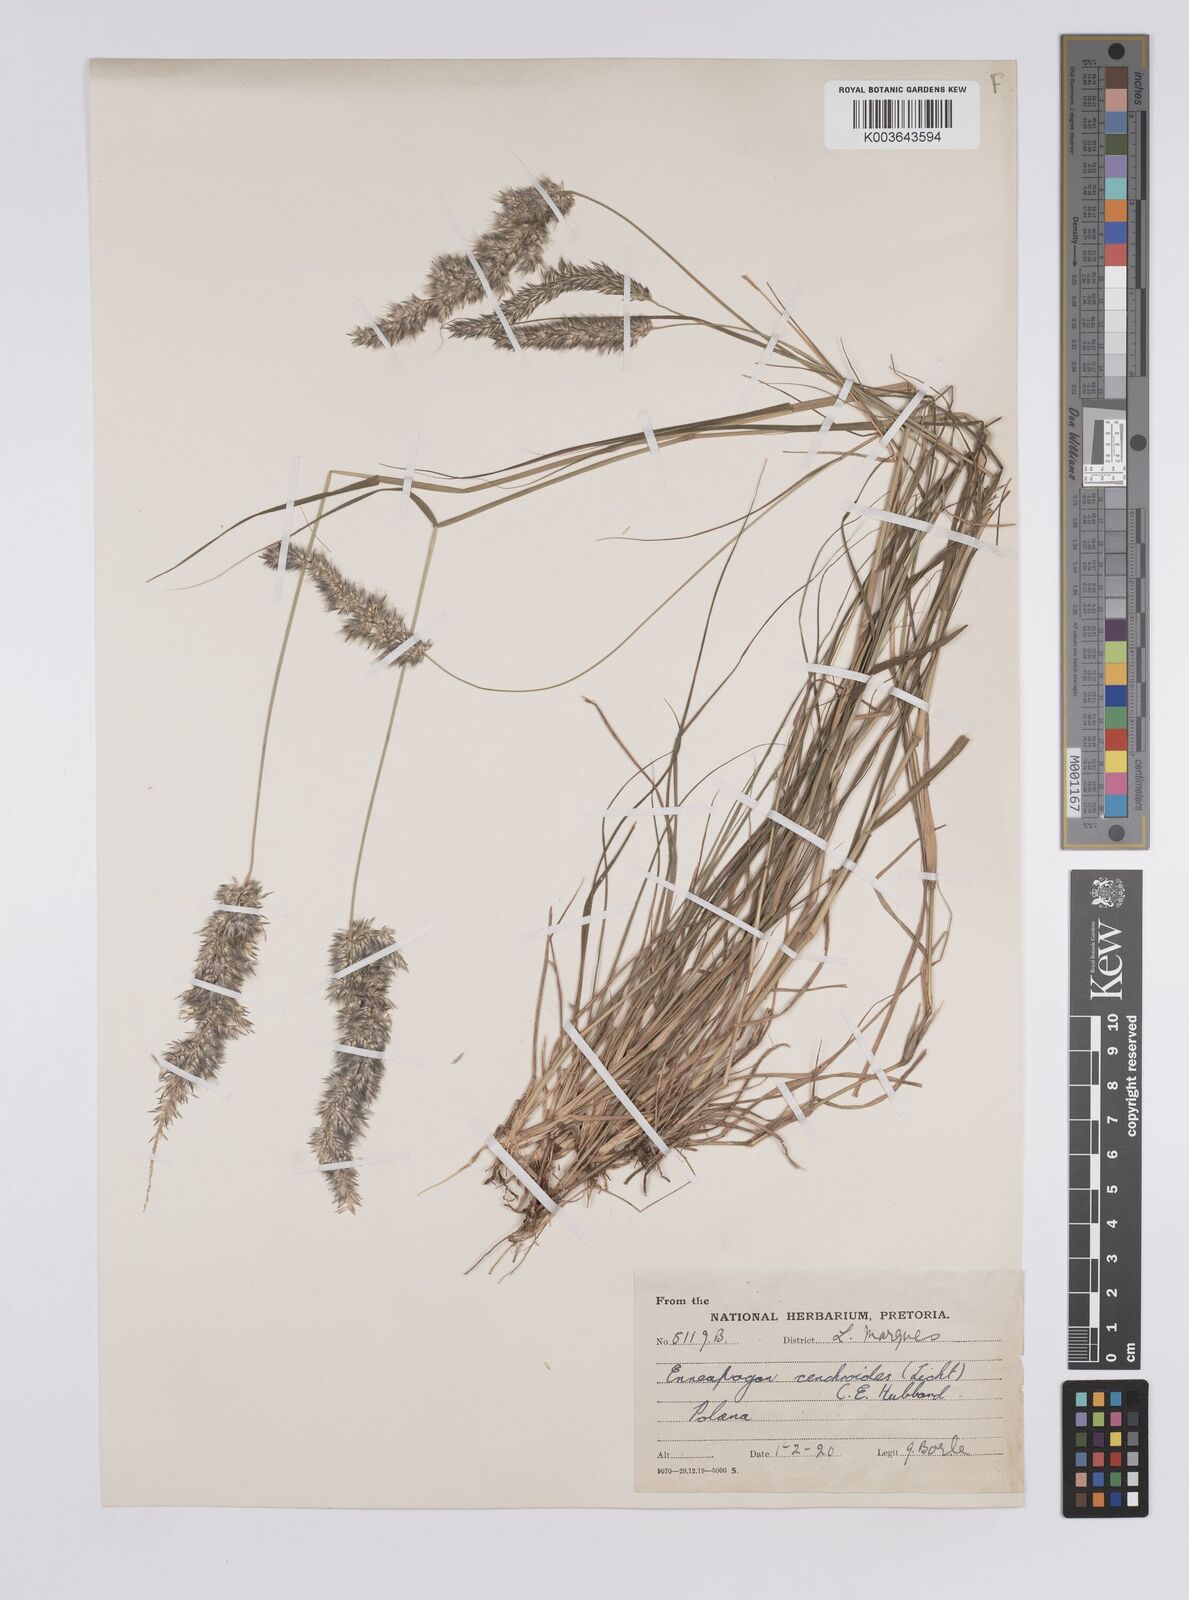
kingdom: Plantae
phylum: Tracheophyta
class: Liliopsida
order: Poales
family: Poaceae
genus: Enneapogon
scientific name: Enneapogon cenchroides
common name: Soft feather pappusgrass
